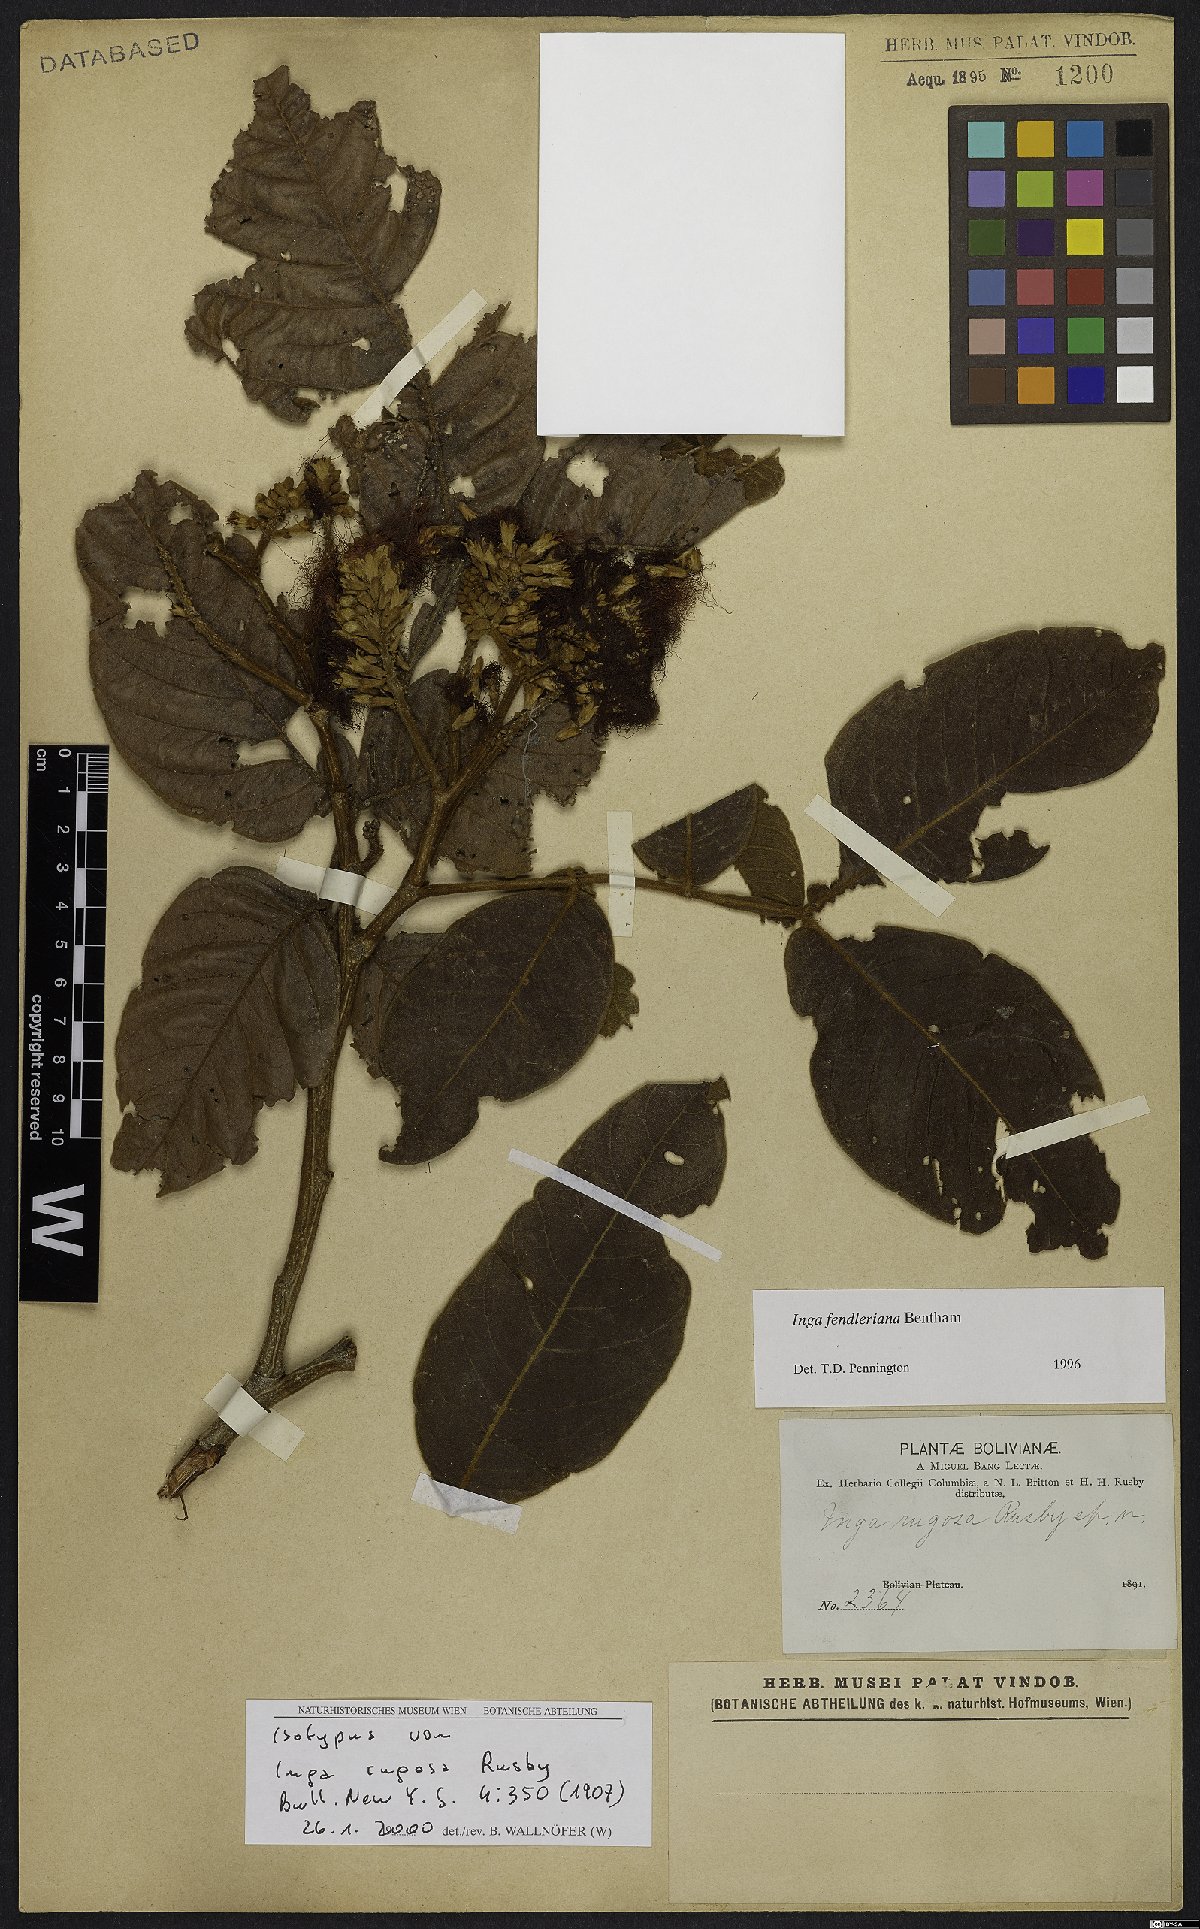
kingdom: Plantae
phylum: Tracheophyta
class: Magnoliopsida
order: Fabales
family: Fabaceae
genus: Inga
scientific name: Inga fendleriana
